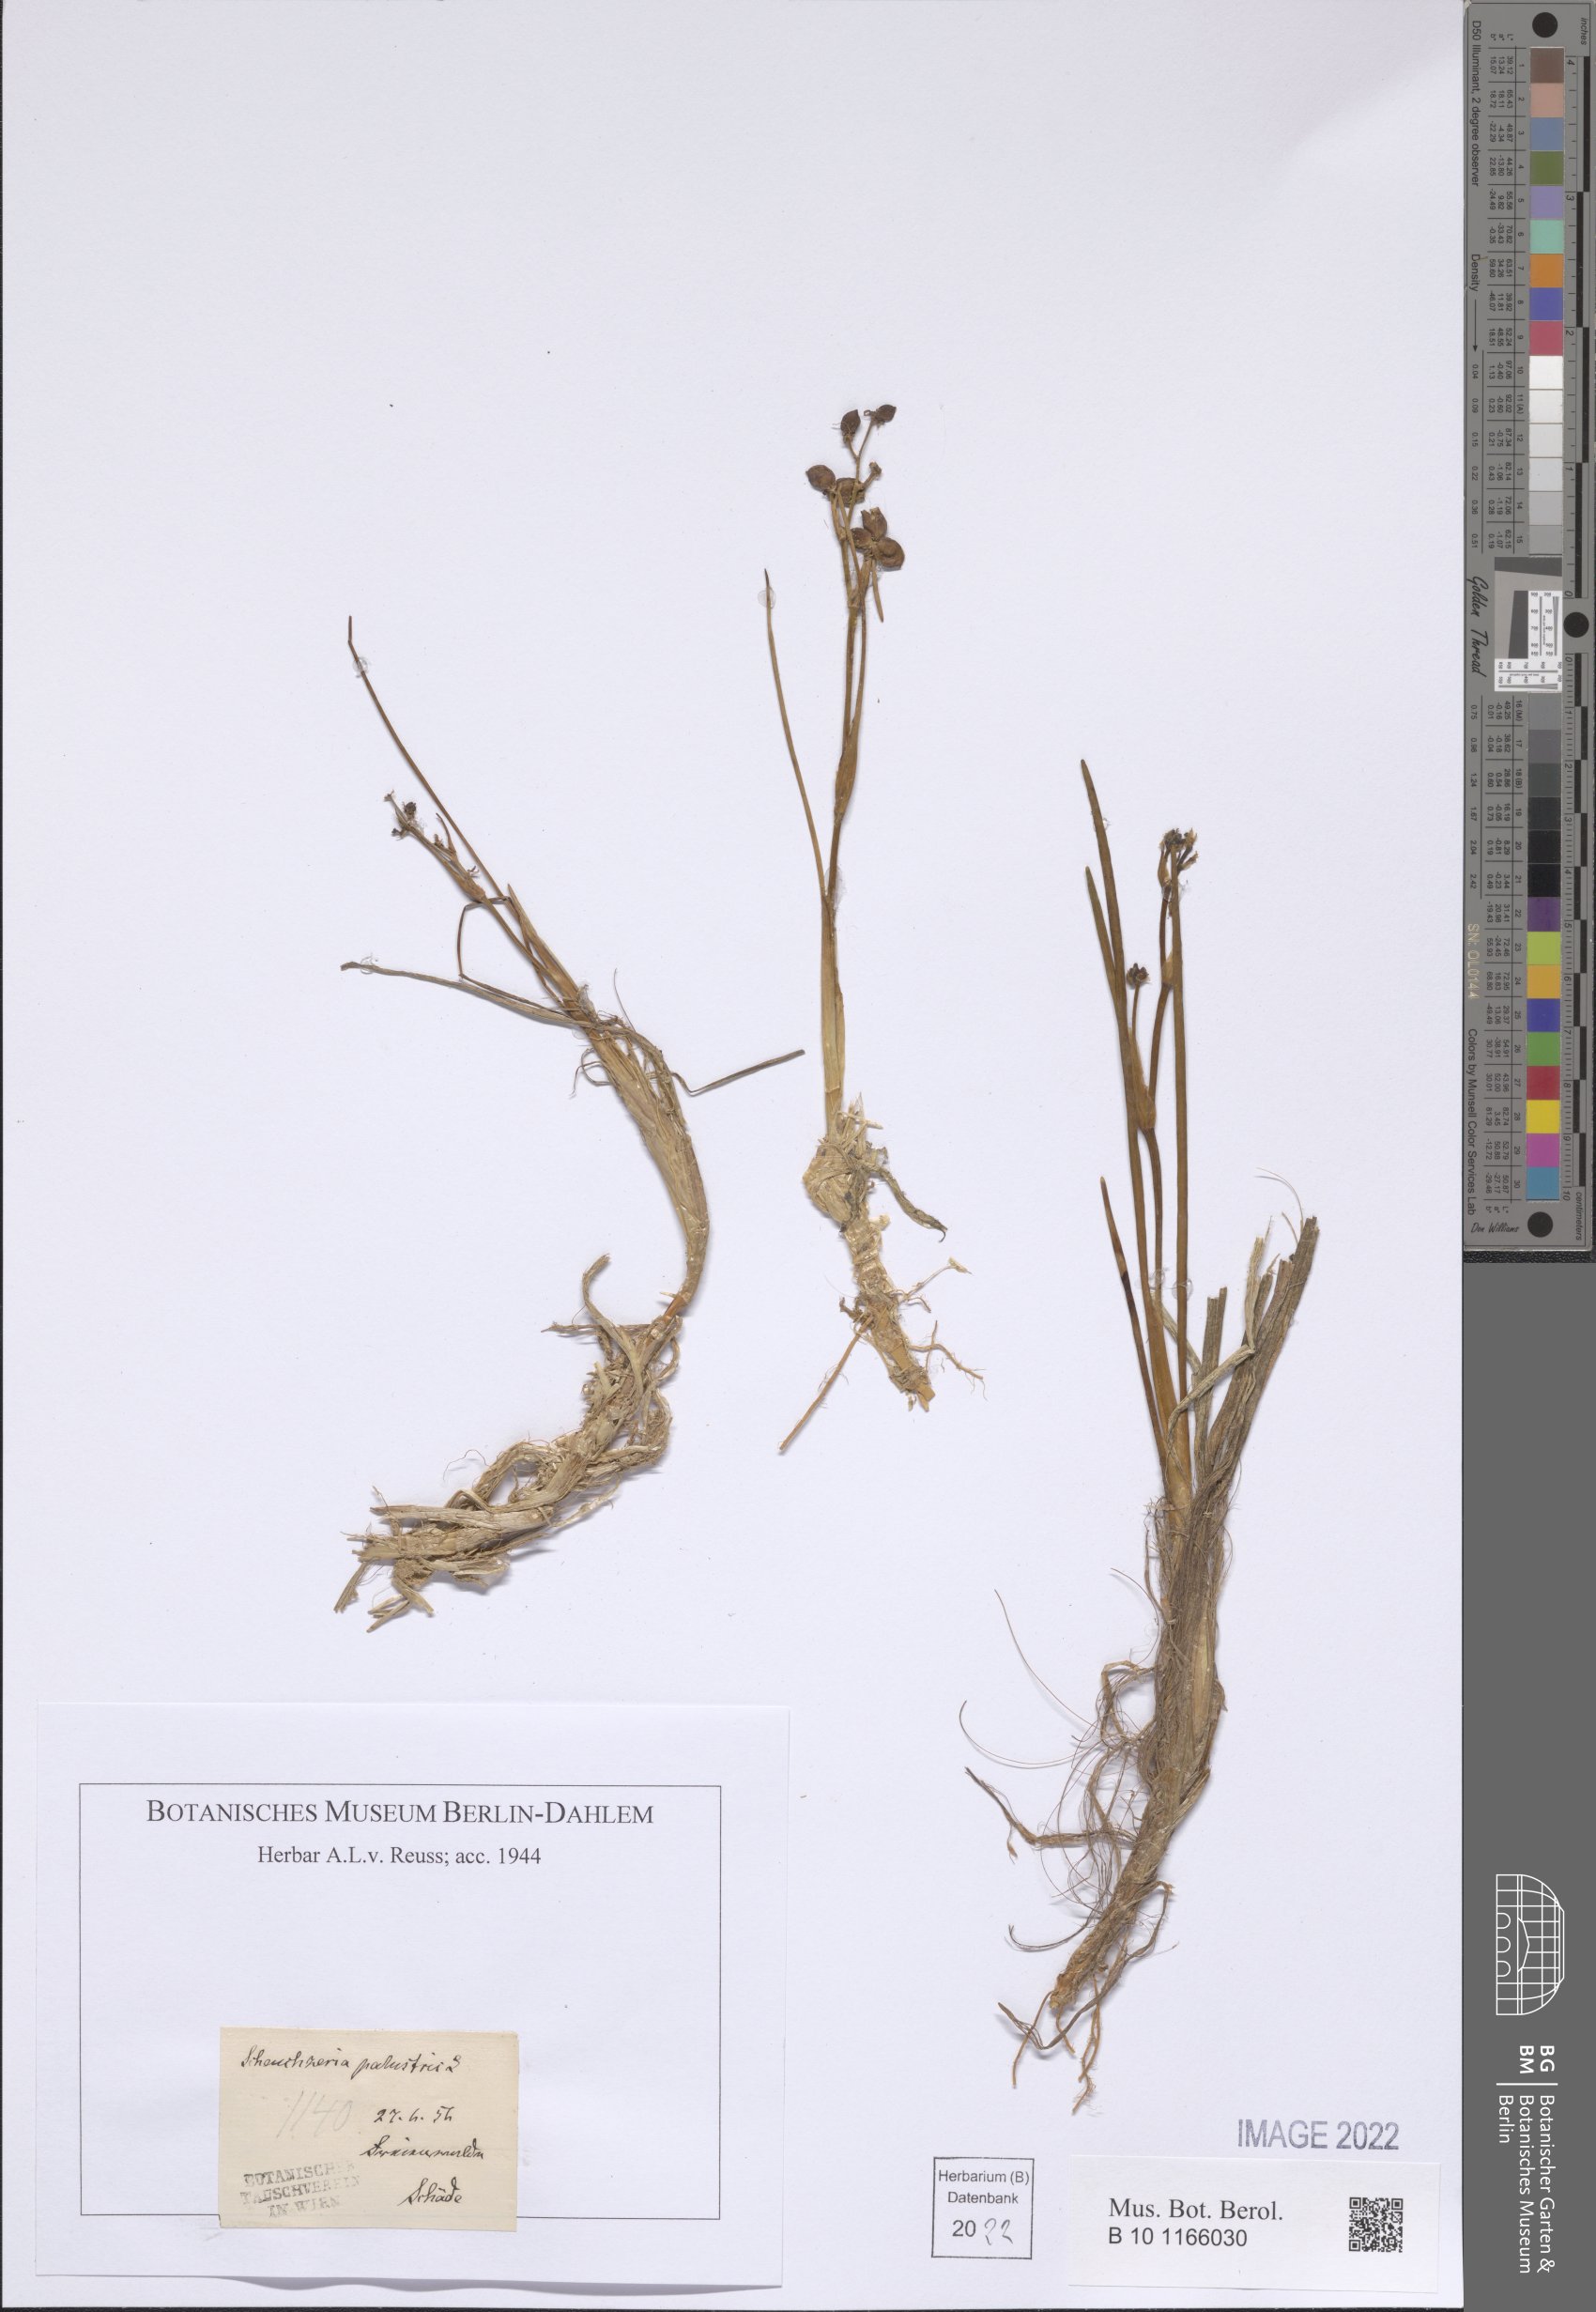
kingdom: Plantae
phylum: Tracheophyta
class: Liliopsida
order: Alismatales
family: Scheuchzeriaceae
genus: Scheuchzeria
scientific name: Scheuchzeria palustris
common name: Rannoch-rush
